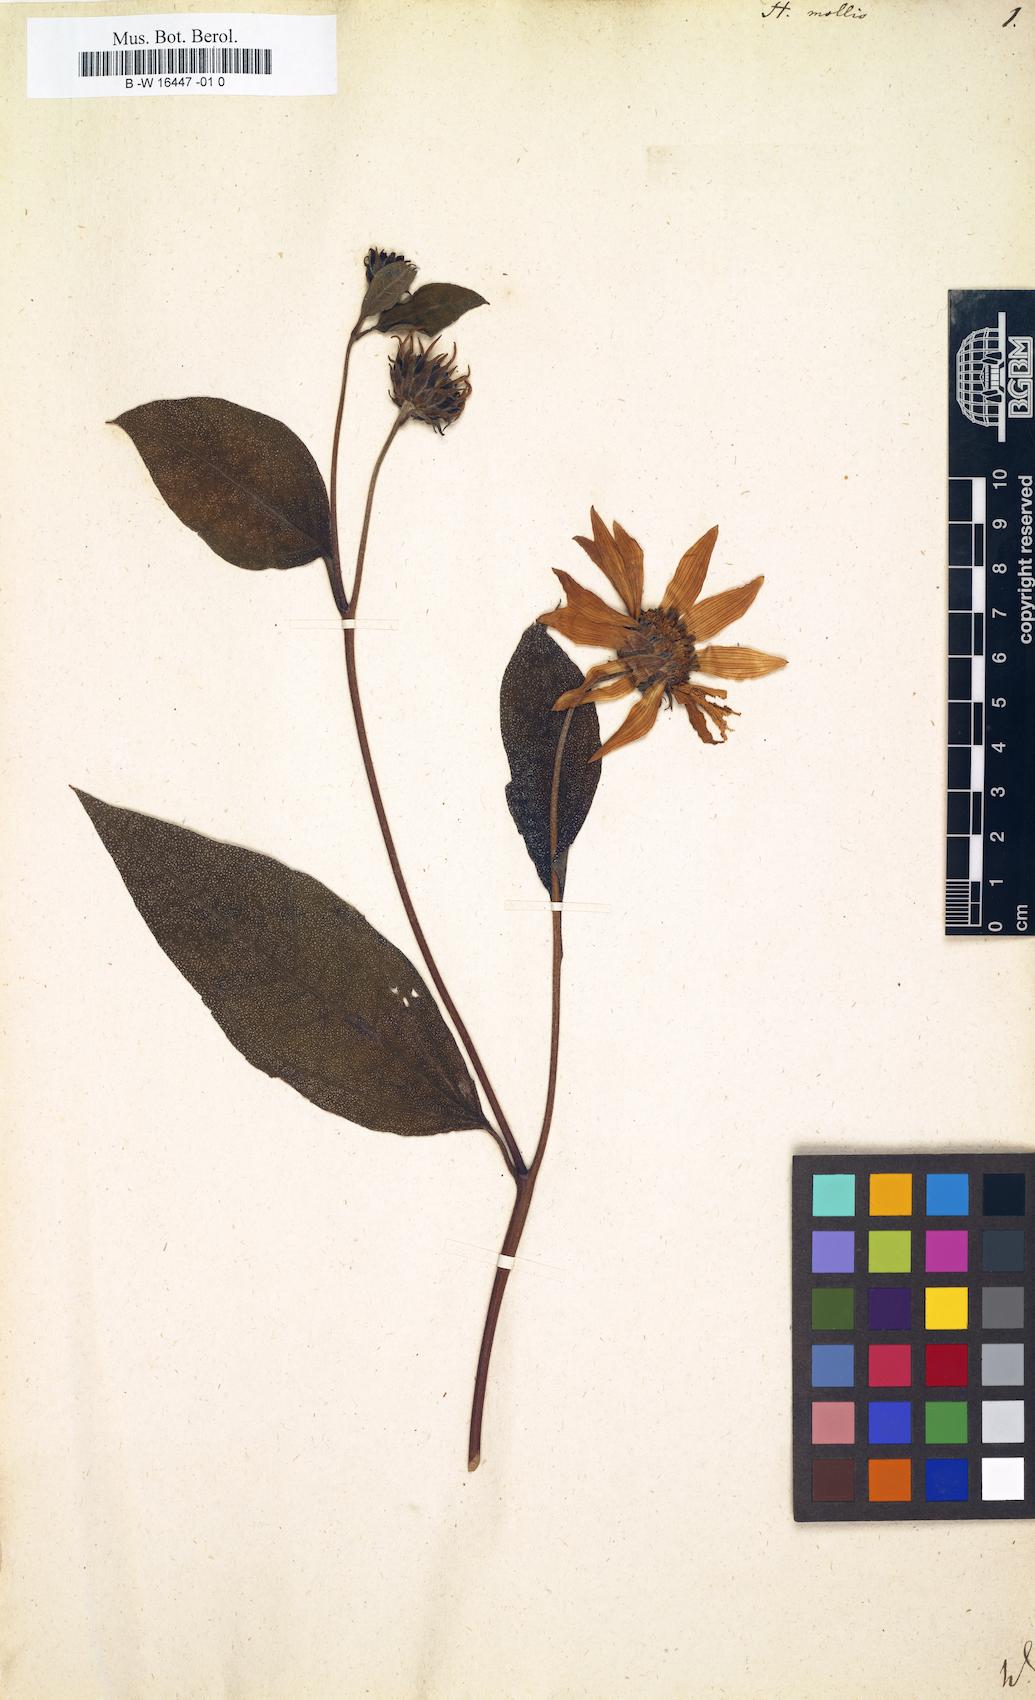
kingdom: Plantae
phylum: Tracheophyta
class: Magnoliopsida
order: Asterales
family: Asteraceae
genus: Helianthus
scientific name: Helianthus strumosus
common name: Pale-leaved sunflower
